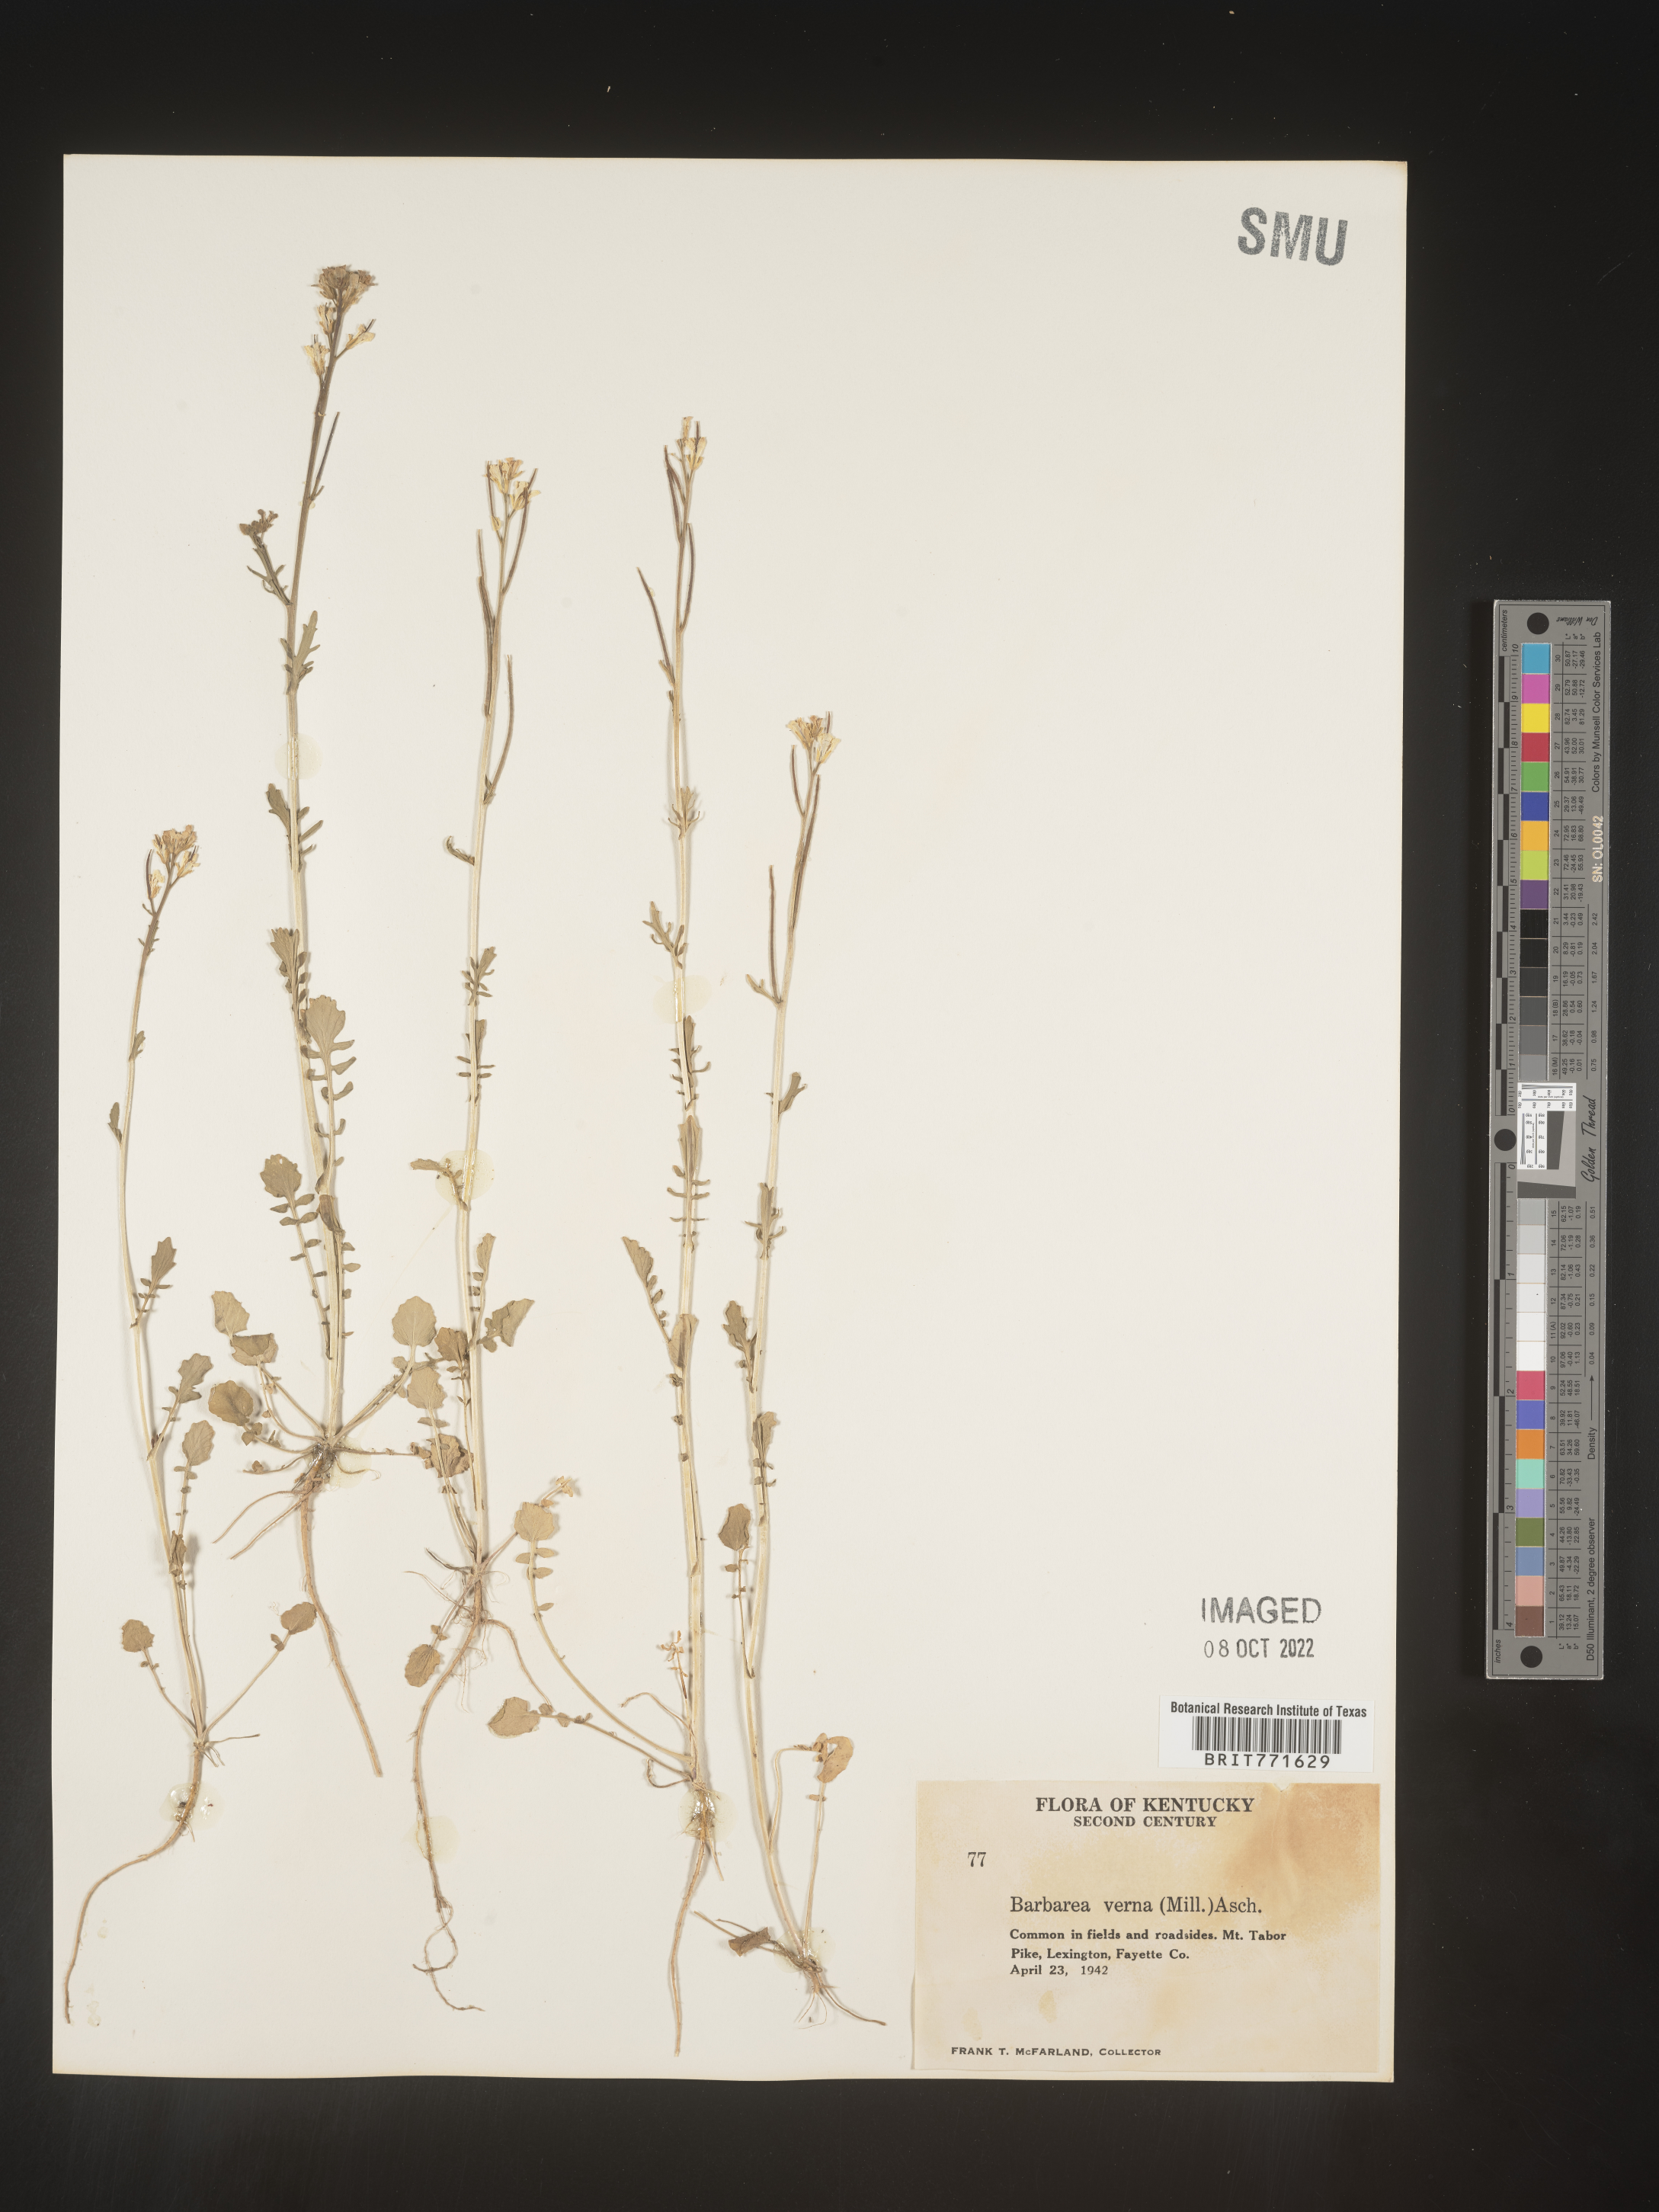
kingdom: Plantae
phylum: Tracheophyta
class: Magnoliopsida
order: Brassicales
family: Brassicaceae
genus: Barbarea
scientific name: Barbarea verna
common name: American cress
